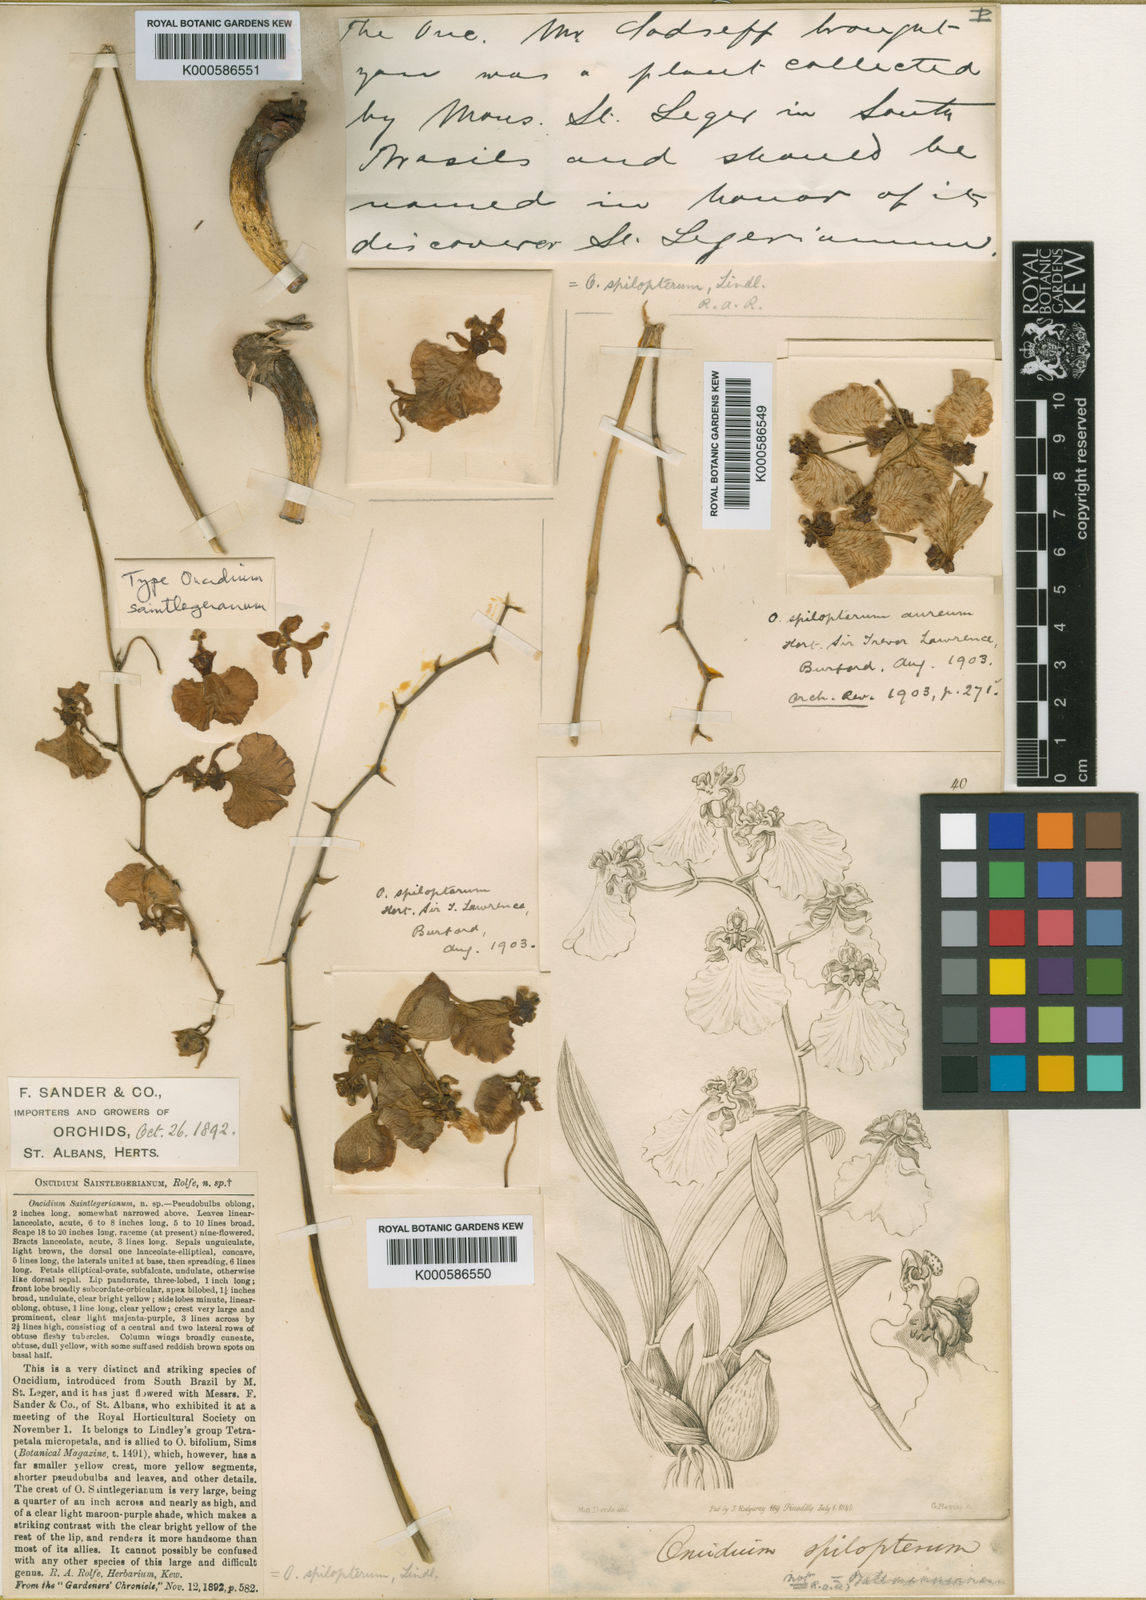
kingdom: Plantae
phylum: Tracheophyta
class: Liliopsida
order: Asparagales
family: Orchidaceae
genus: Gomesa
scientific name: Gomesa maculosa
